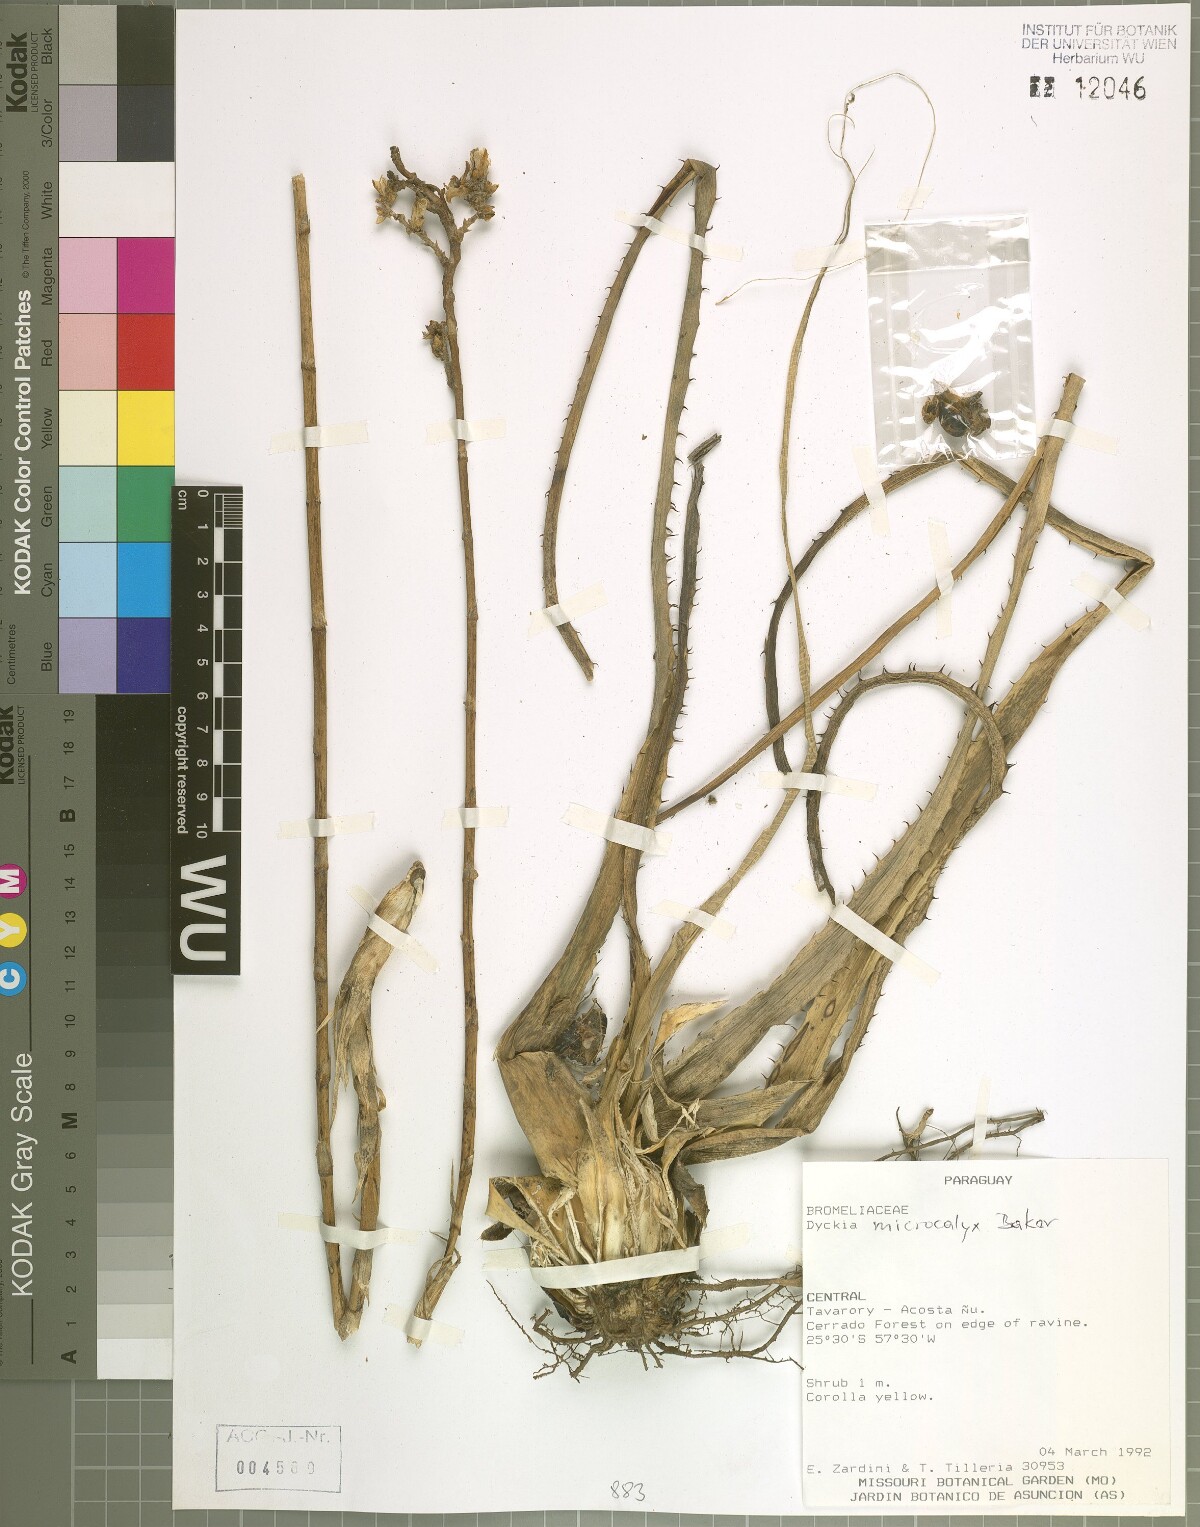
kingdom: Plantae
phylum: Tracheophyta
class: Liliopsida
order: Poales
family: Bromeliaceae
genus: Dyckia
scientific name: Dyckia microcalyx
